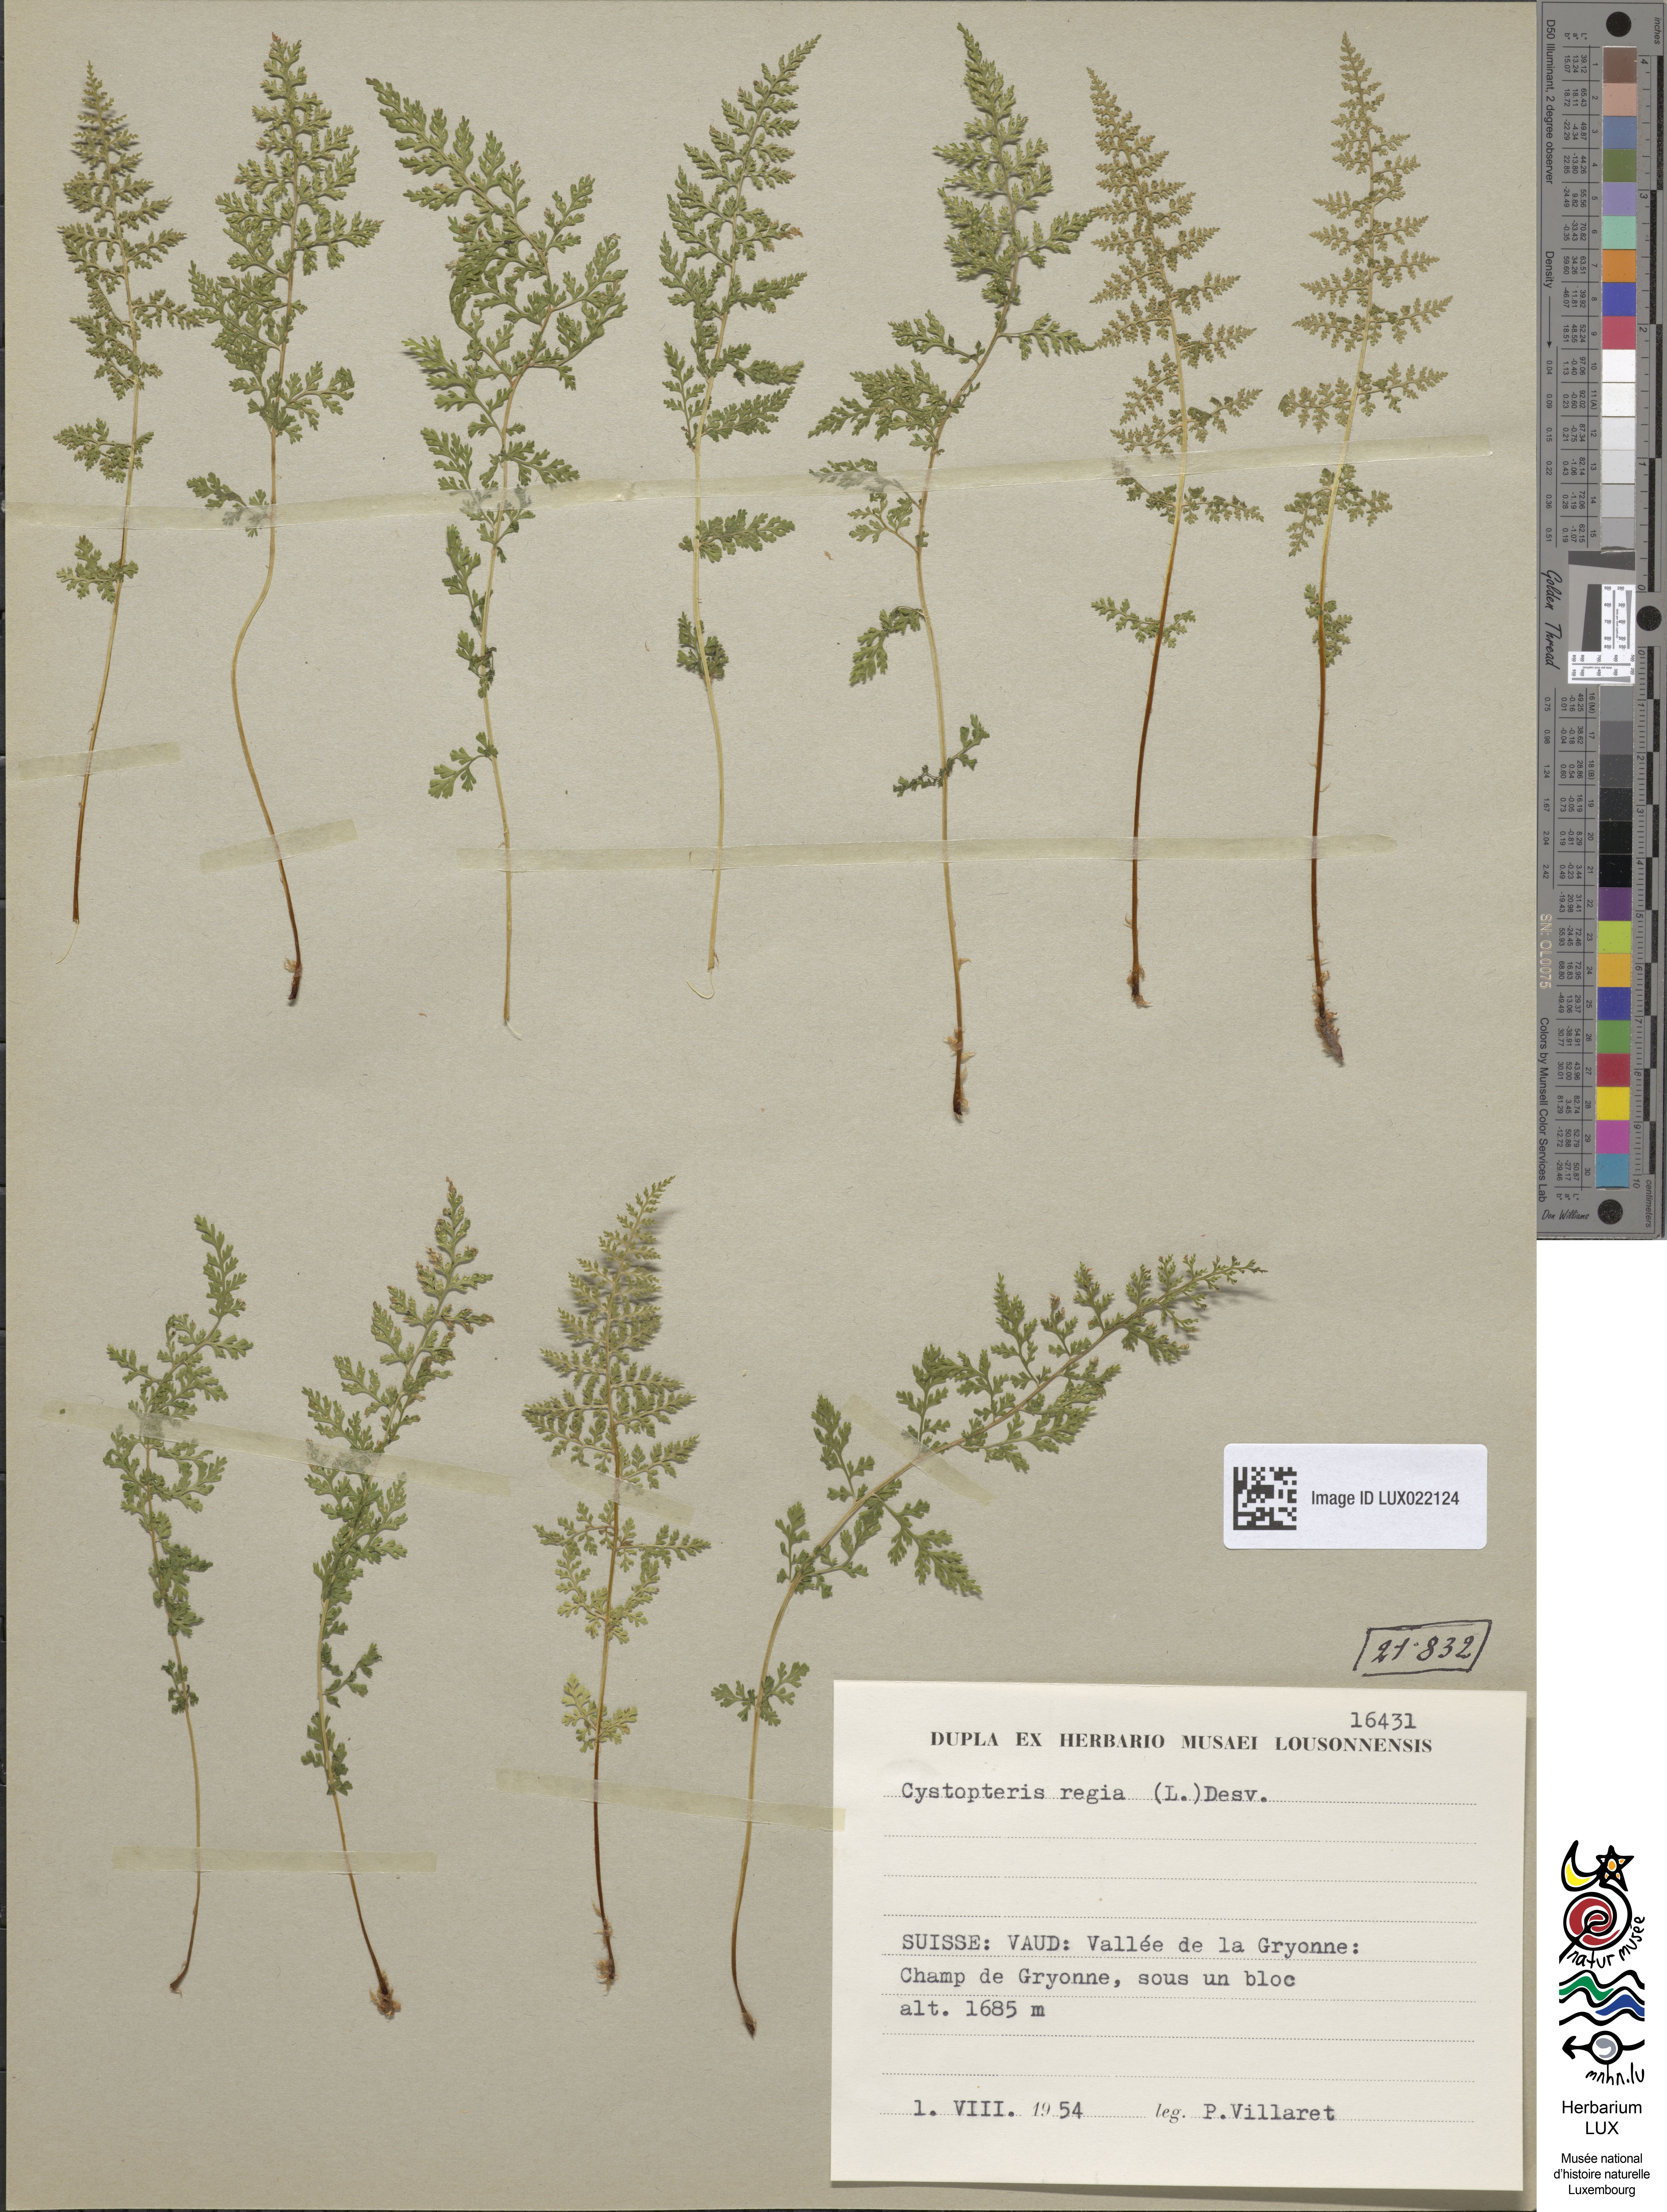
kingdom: Plantae
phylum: Tracheophyta
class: Polypodiopsida
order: Polypodiales
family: Cystopteridaceae
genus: Cystopteris
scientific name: Cystopteris alpina
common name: Alpine bladder-fern
